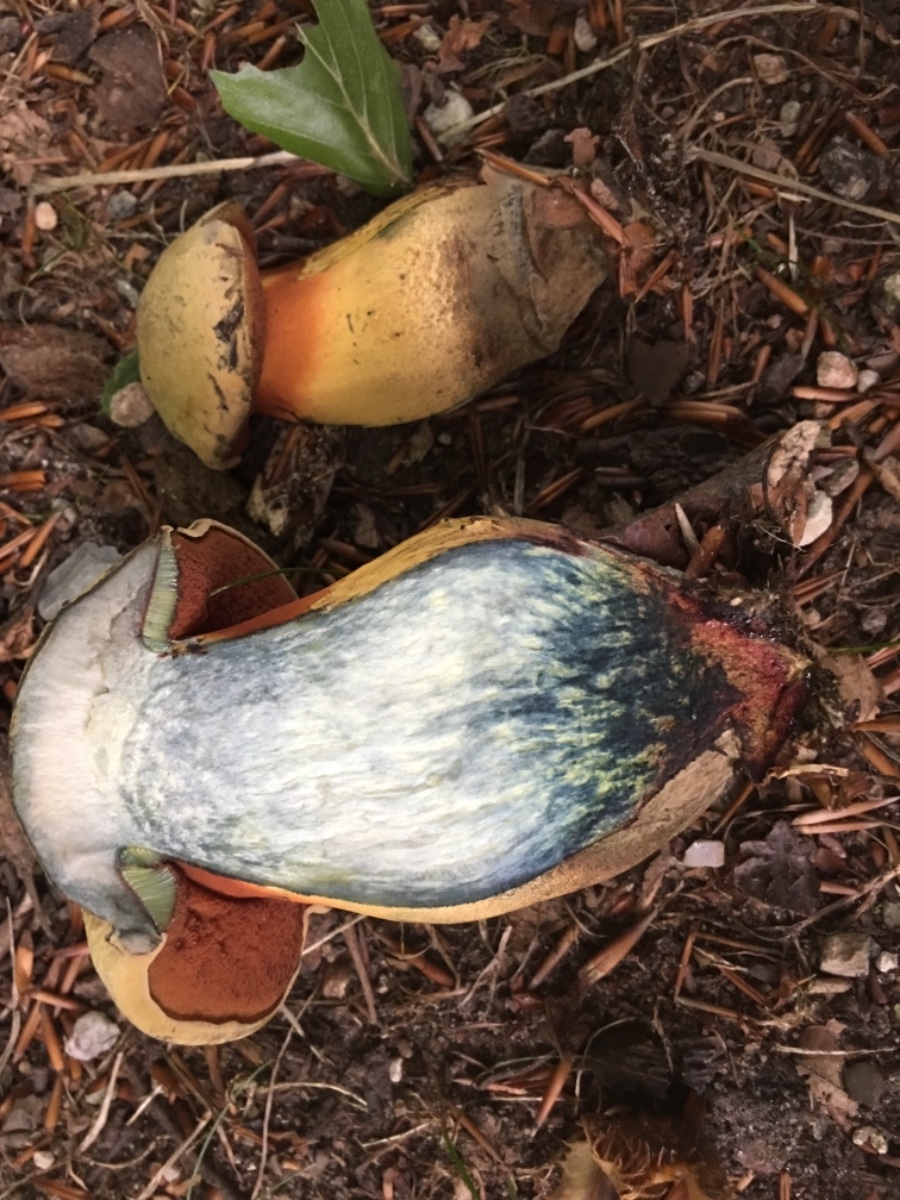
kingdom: Fungi
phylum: Basidiomycota
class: Agaricomycetes
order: Boletales
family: Boletaceae
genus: Suillellus
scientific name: Suillellus luridus
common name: netstokket indigorørhat
